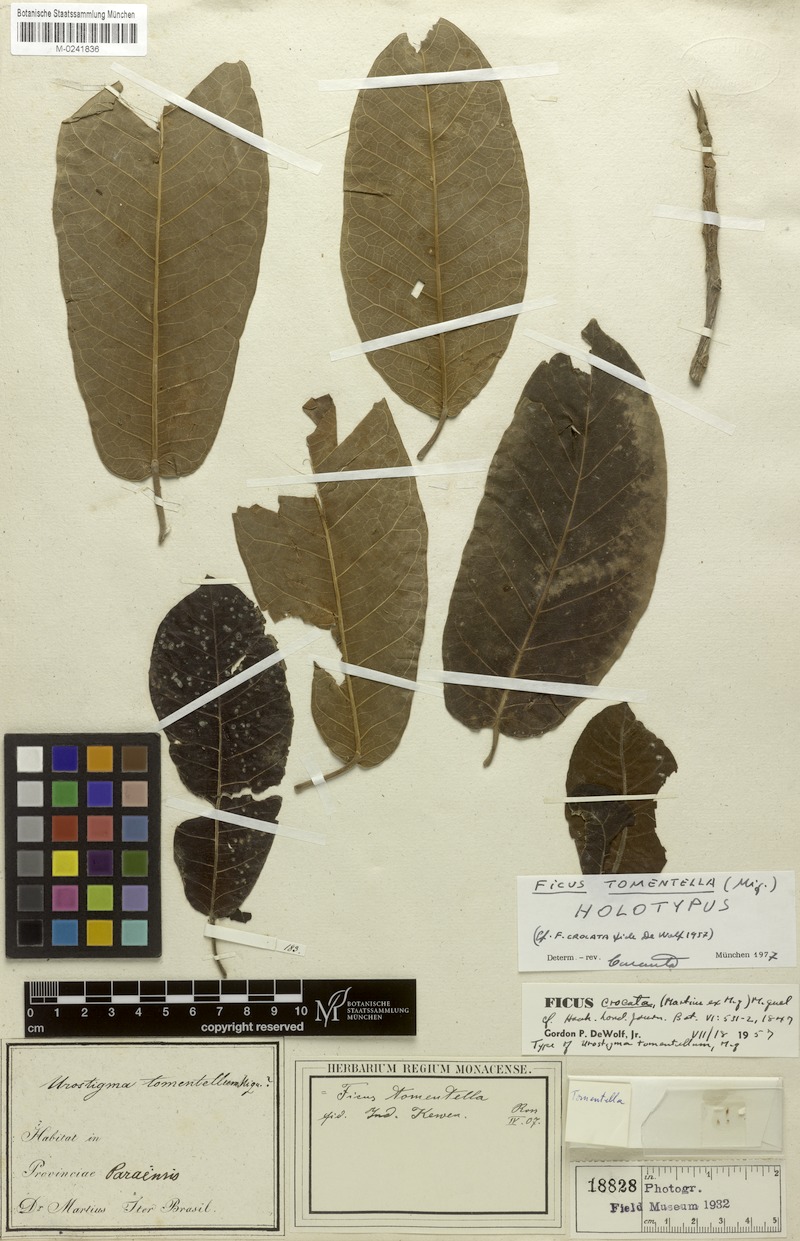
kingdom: Plantae
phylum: Tracheophyta
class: Magnoliopsida
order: Rosales
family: Moraceae
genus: Ficus
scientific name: Ficus crocata
